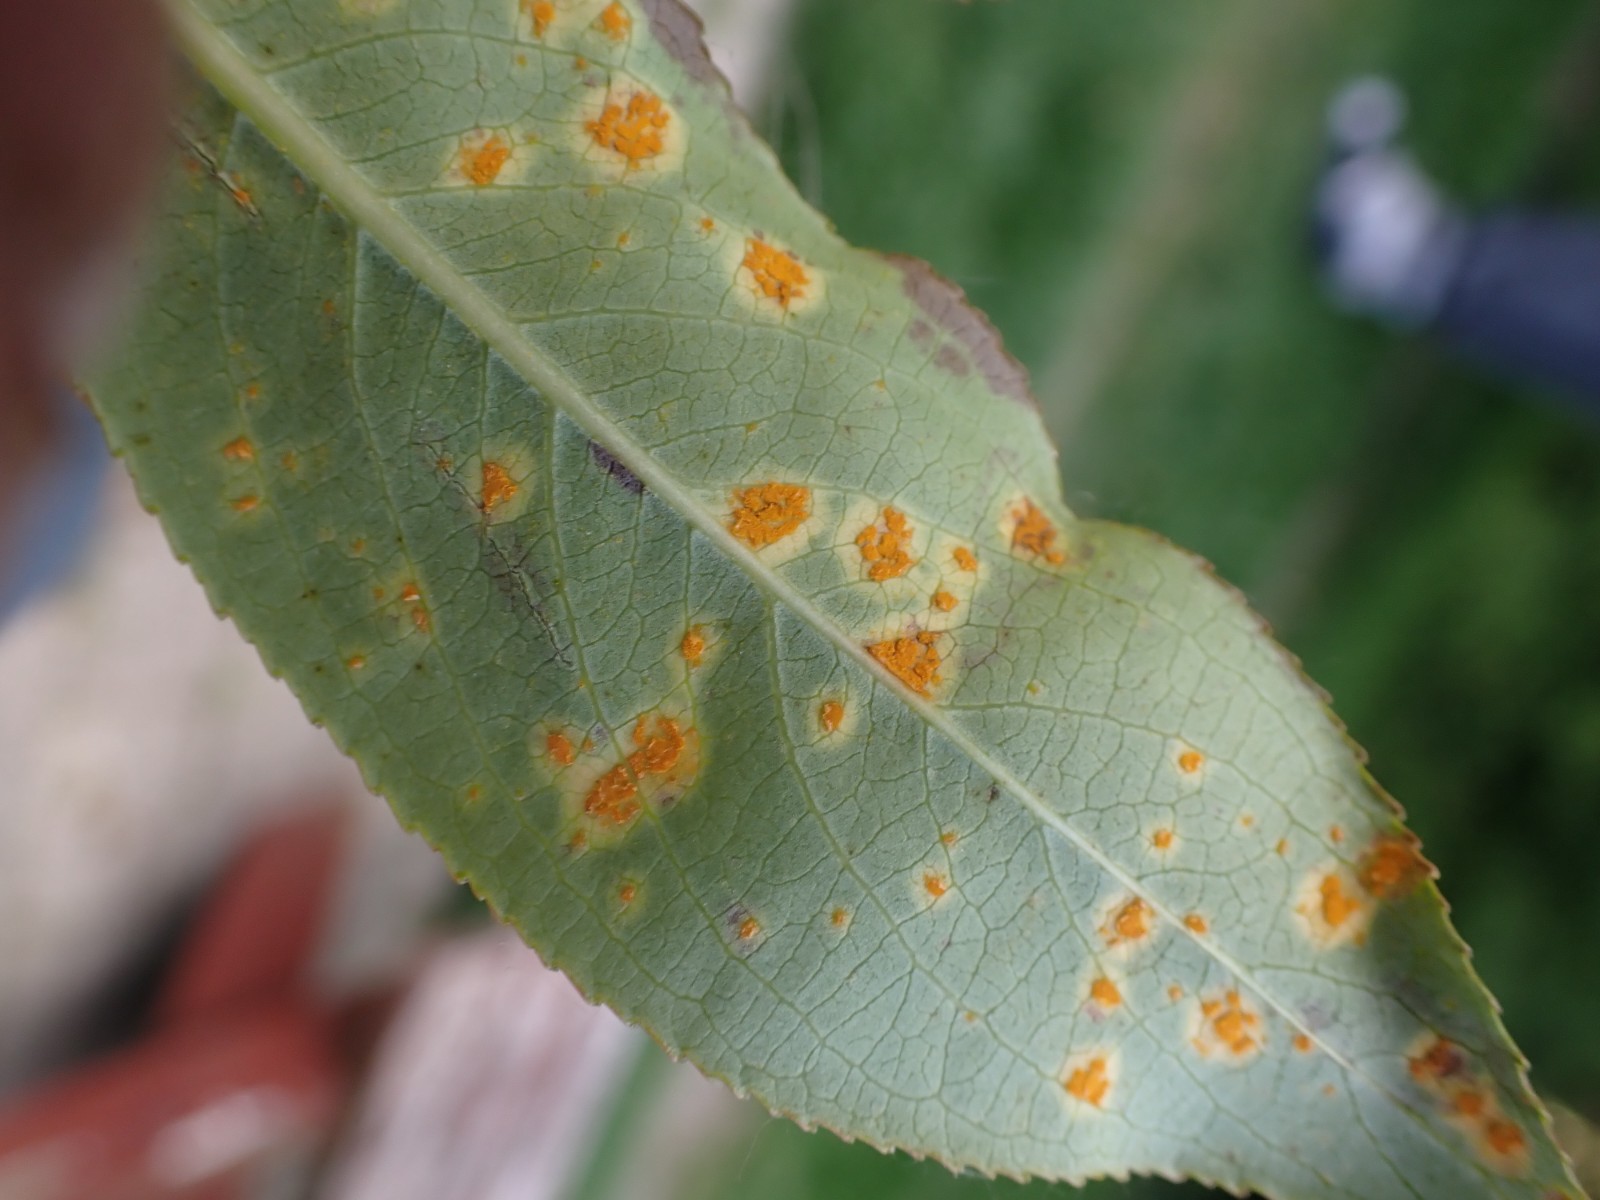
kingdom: Fungi
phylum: Basidiomycota
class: Pucciniomycetes
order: Pucciniales
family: Melampsoraceae
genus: Melampsora
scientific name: Melampsora epitea
